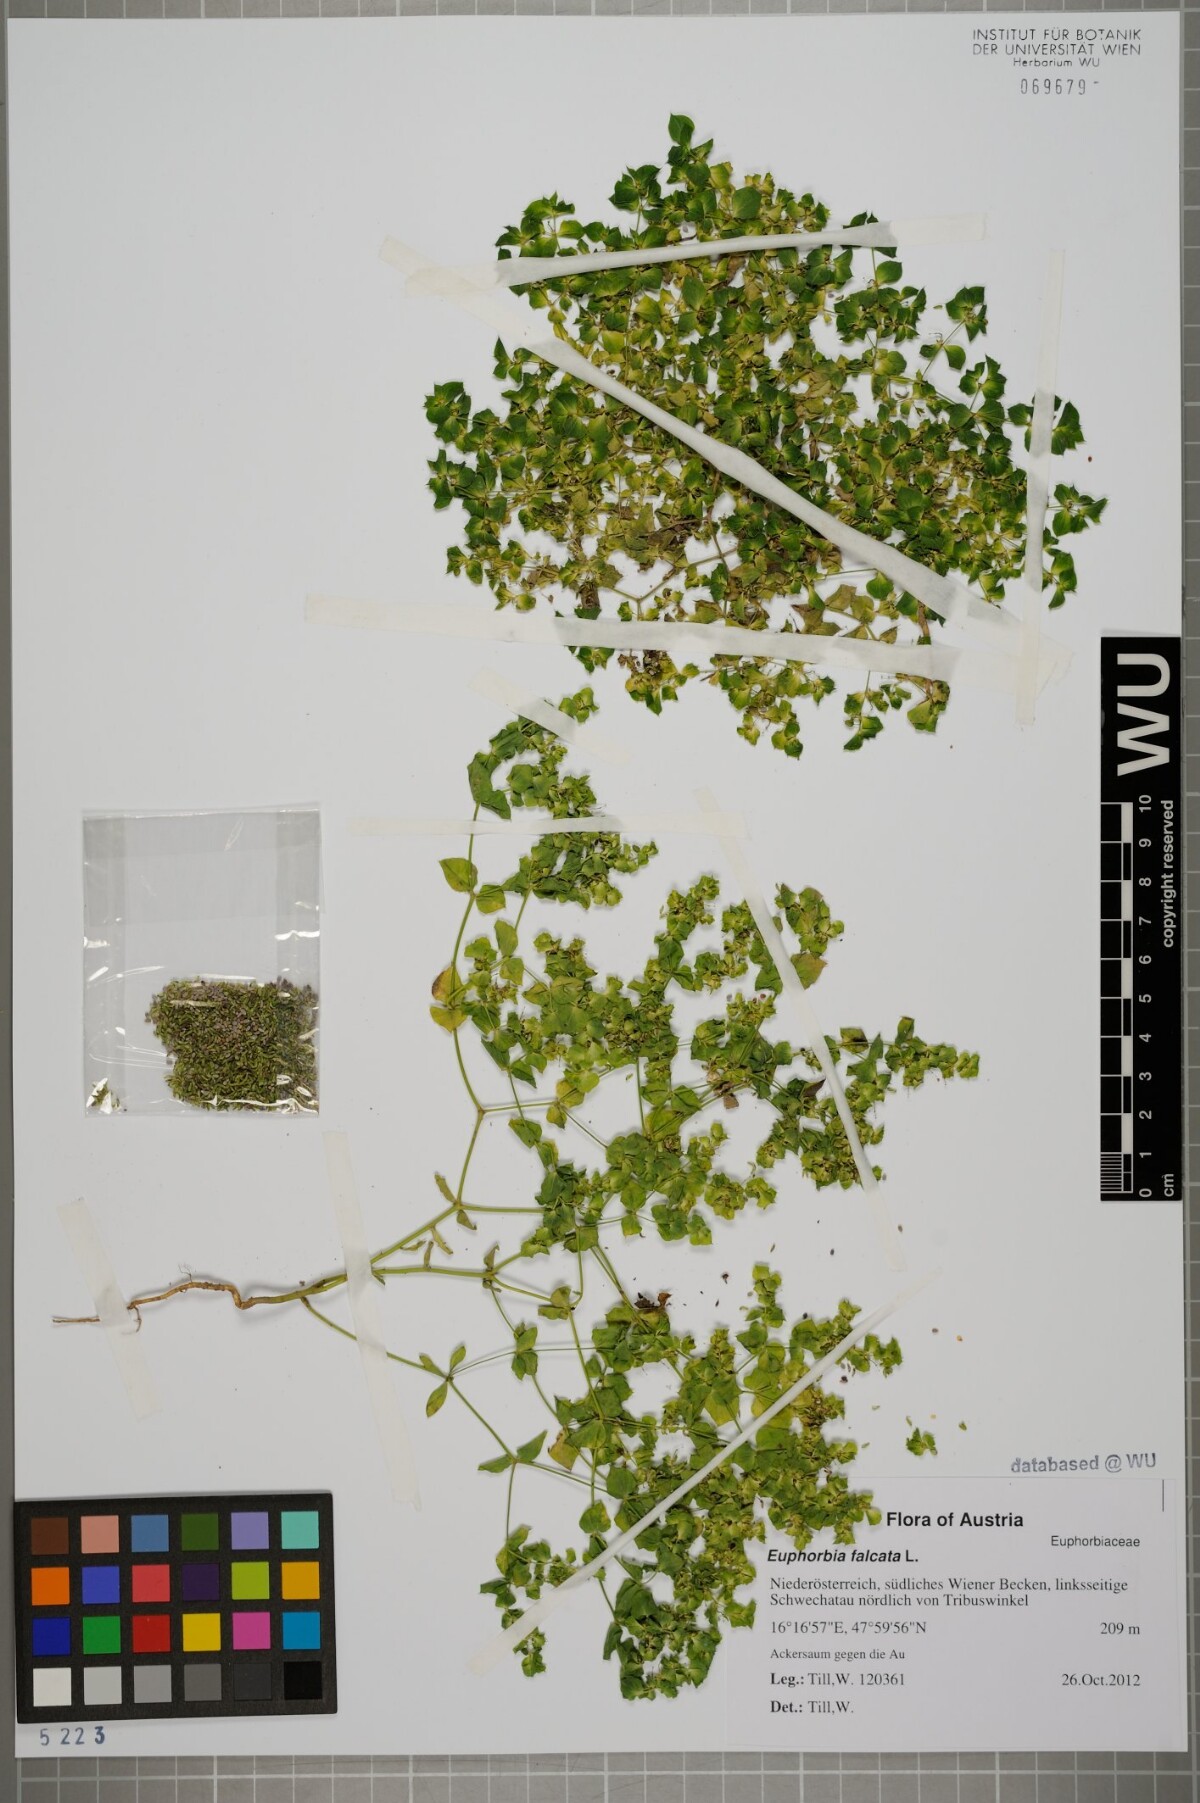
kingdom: Plantae
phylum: Tracheophyta
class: Magnoliopsida
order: Malpighiales
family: Euphorbiaceae
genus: Euphorbia
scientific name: Euphorbia falcata
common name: Sickle spurge
